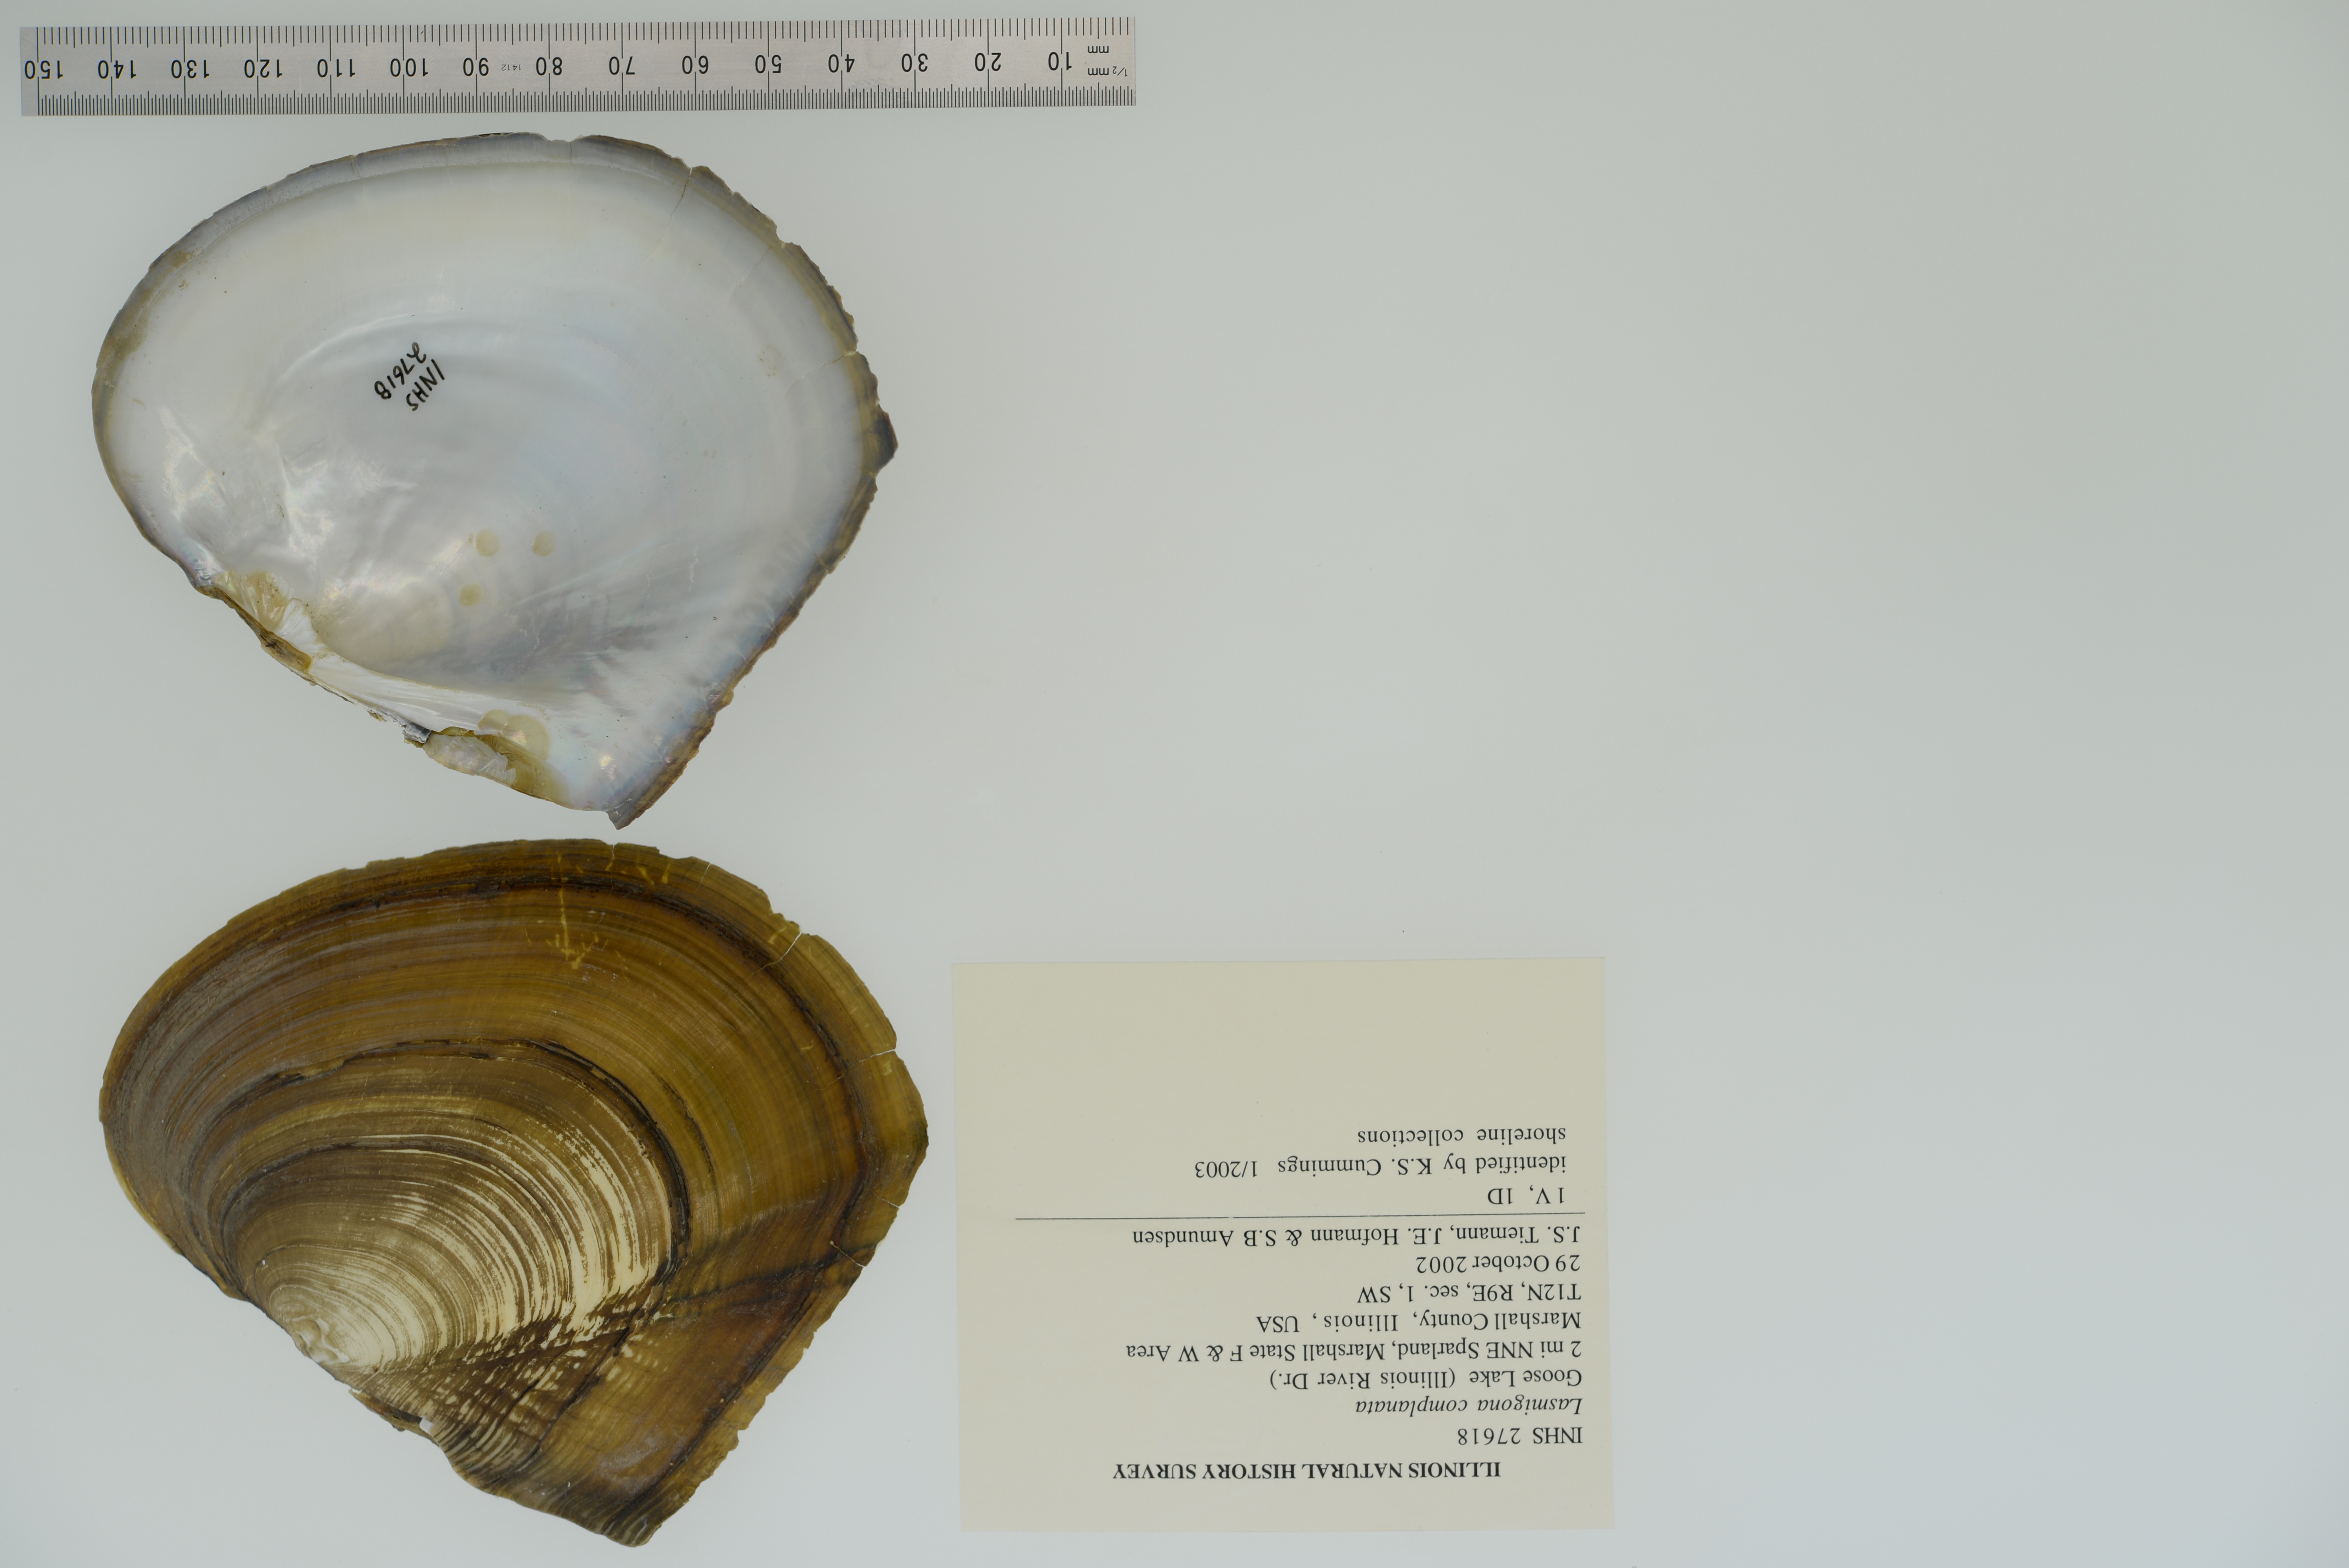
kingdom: Animalia
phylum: Mollusca
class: Bivalvia
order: Unionida
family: Unionidae
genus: Lasmigona
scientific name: Lasmigona complanata
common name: White heelsplitter
